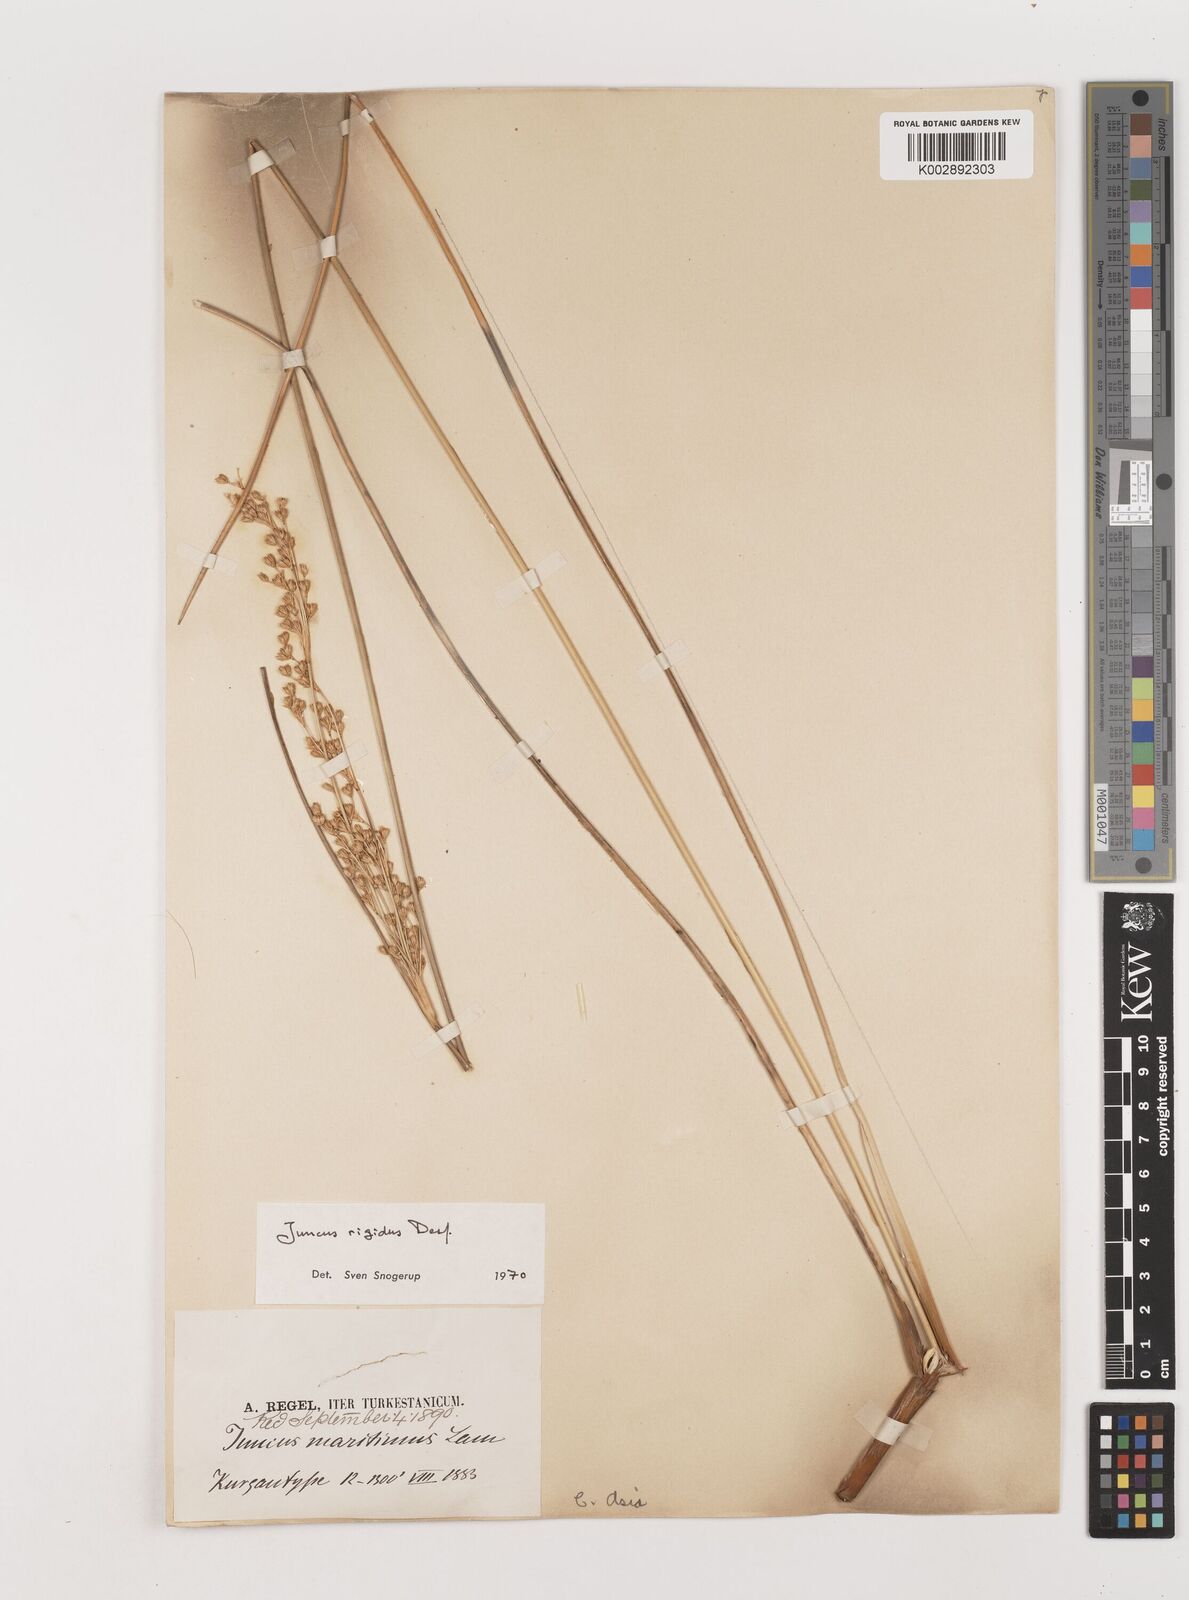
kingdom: Plantae
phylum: Tracheophyta
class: Liliopsida
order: Poales
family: Juncaceae
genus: Juncus
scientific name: Juncus rigidus
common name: Hard sea rush
